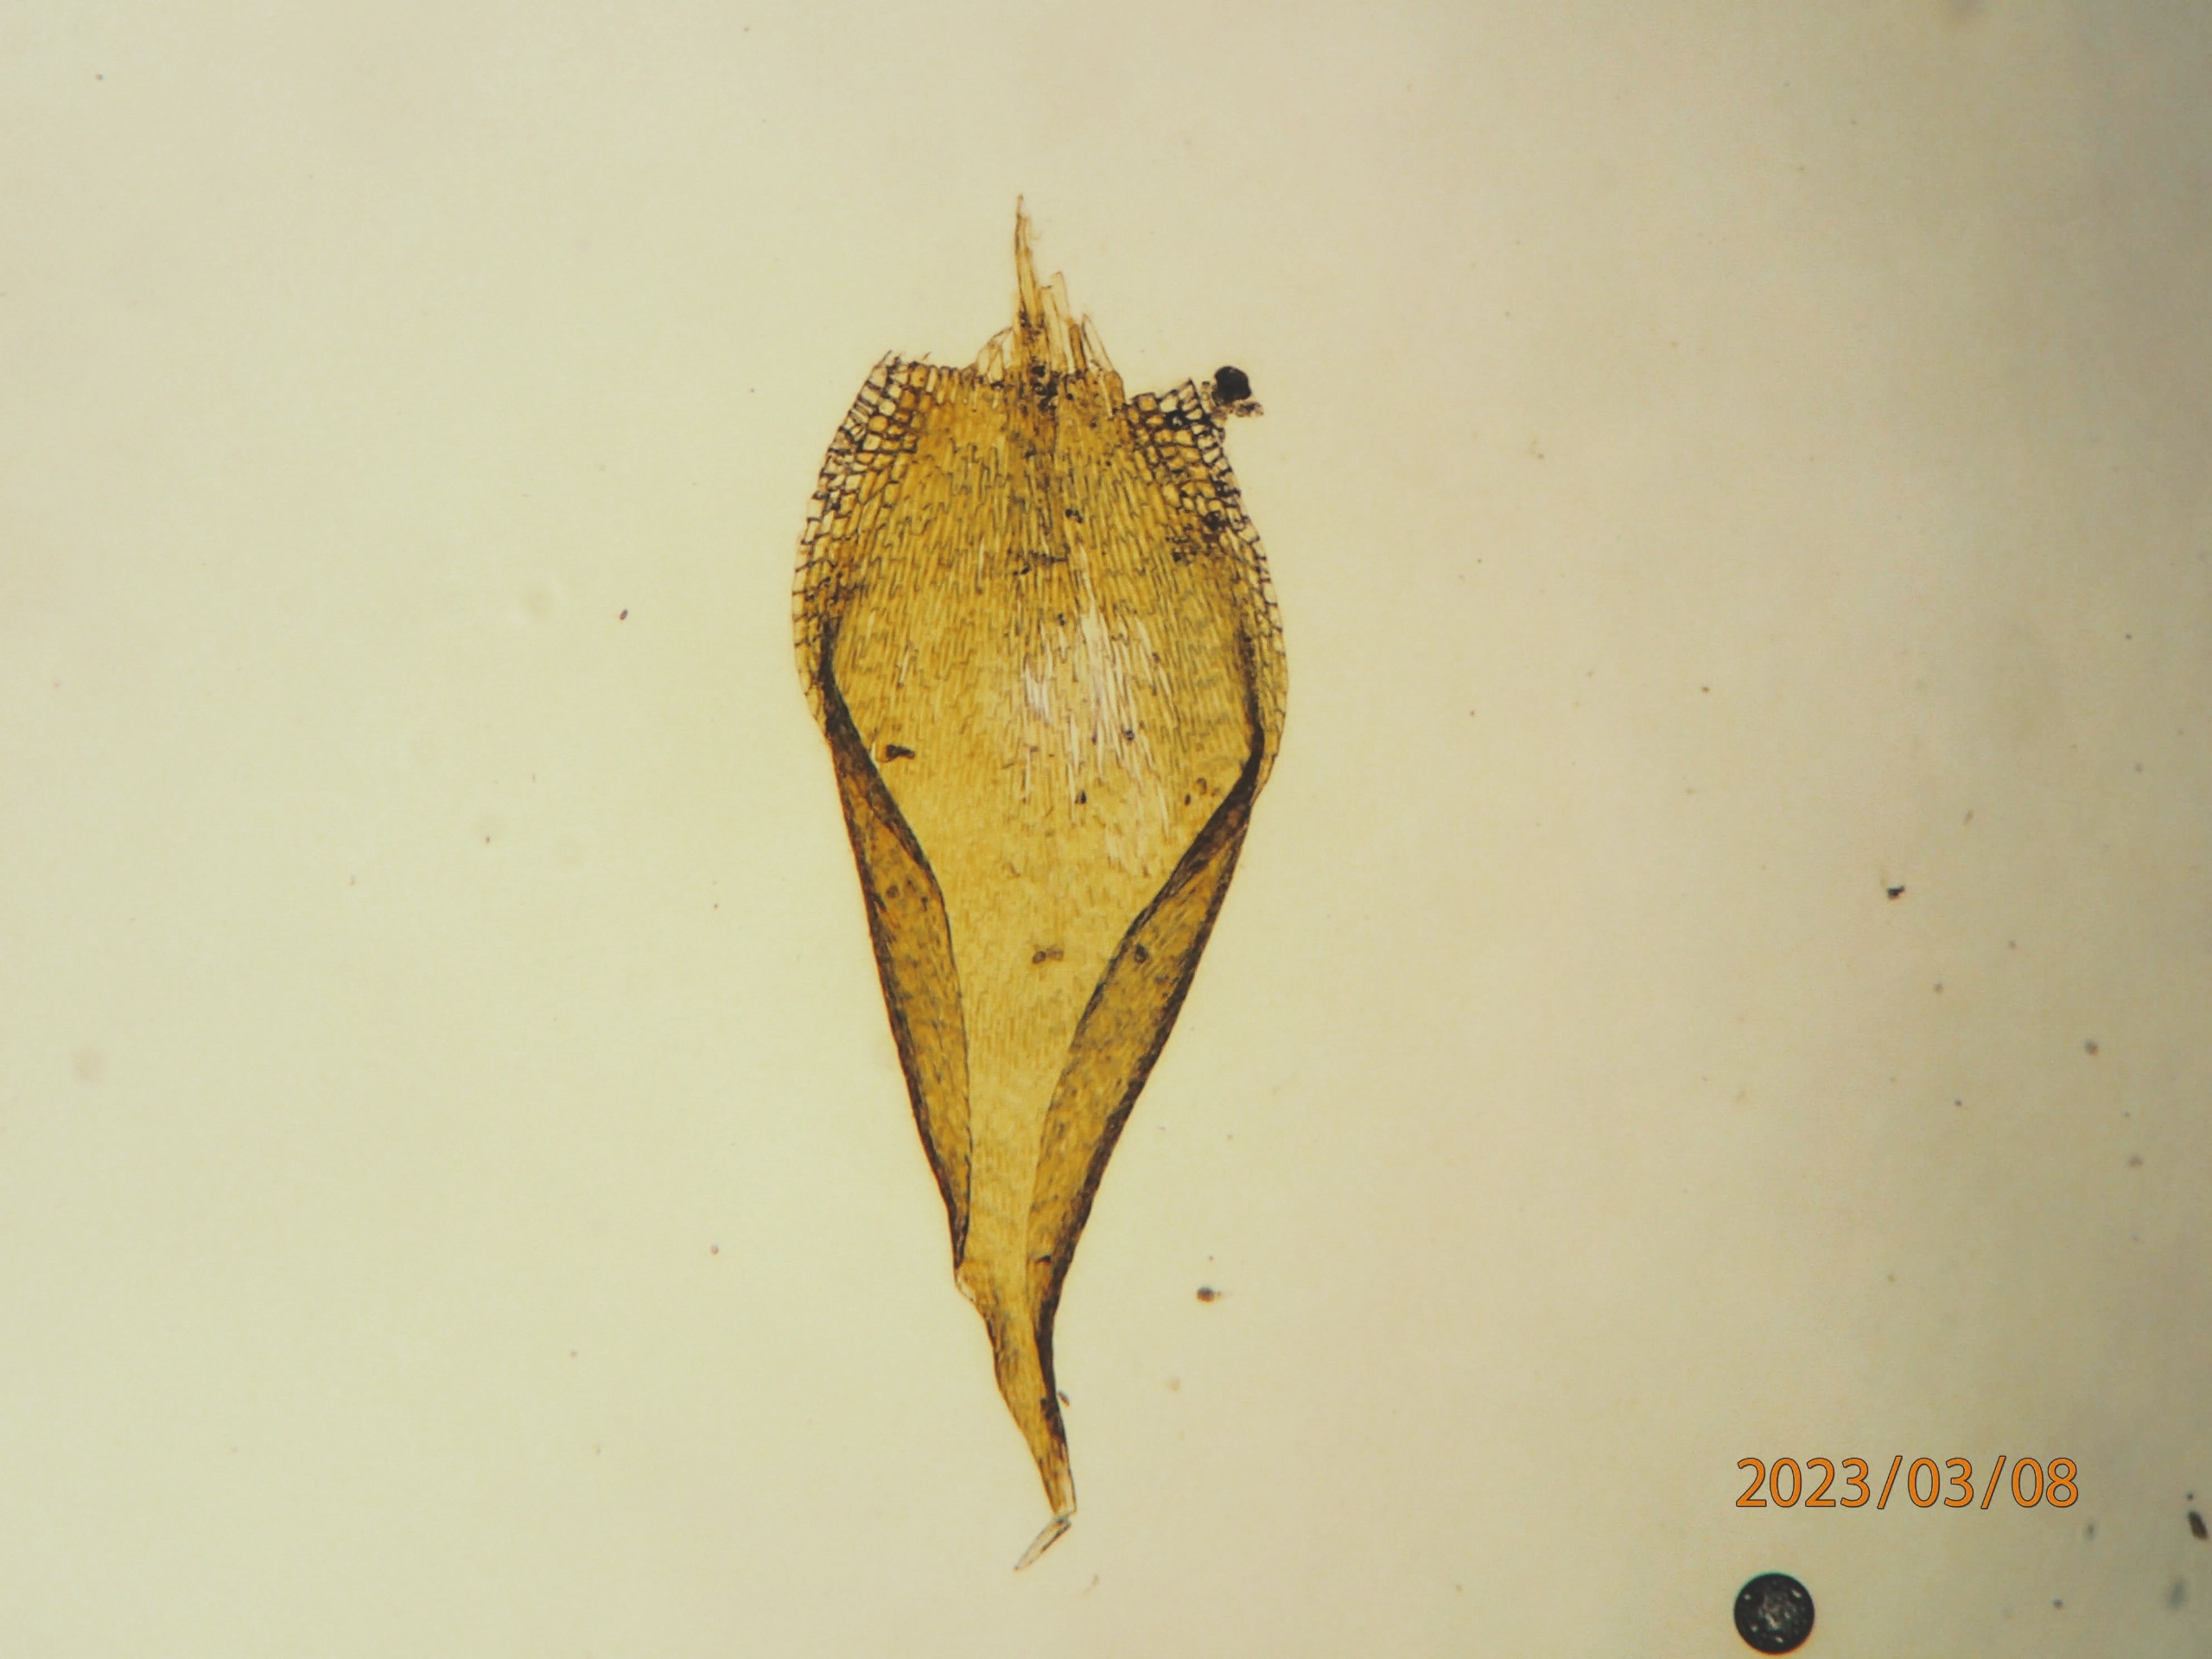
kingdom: Plantae
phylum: Bryophyta
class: Bryopsida
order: Hypnales
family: Pylaisiadelphaceae
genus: Platygyrium
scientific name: Platygyrium repens
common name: Mørk yngleknop
